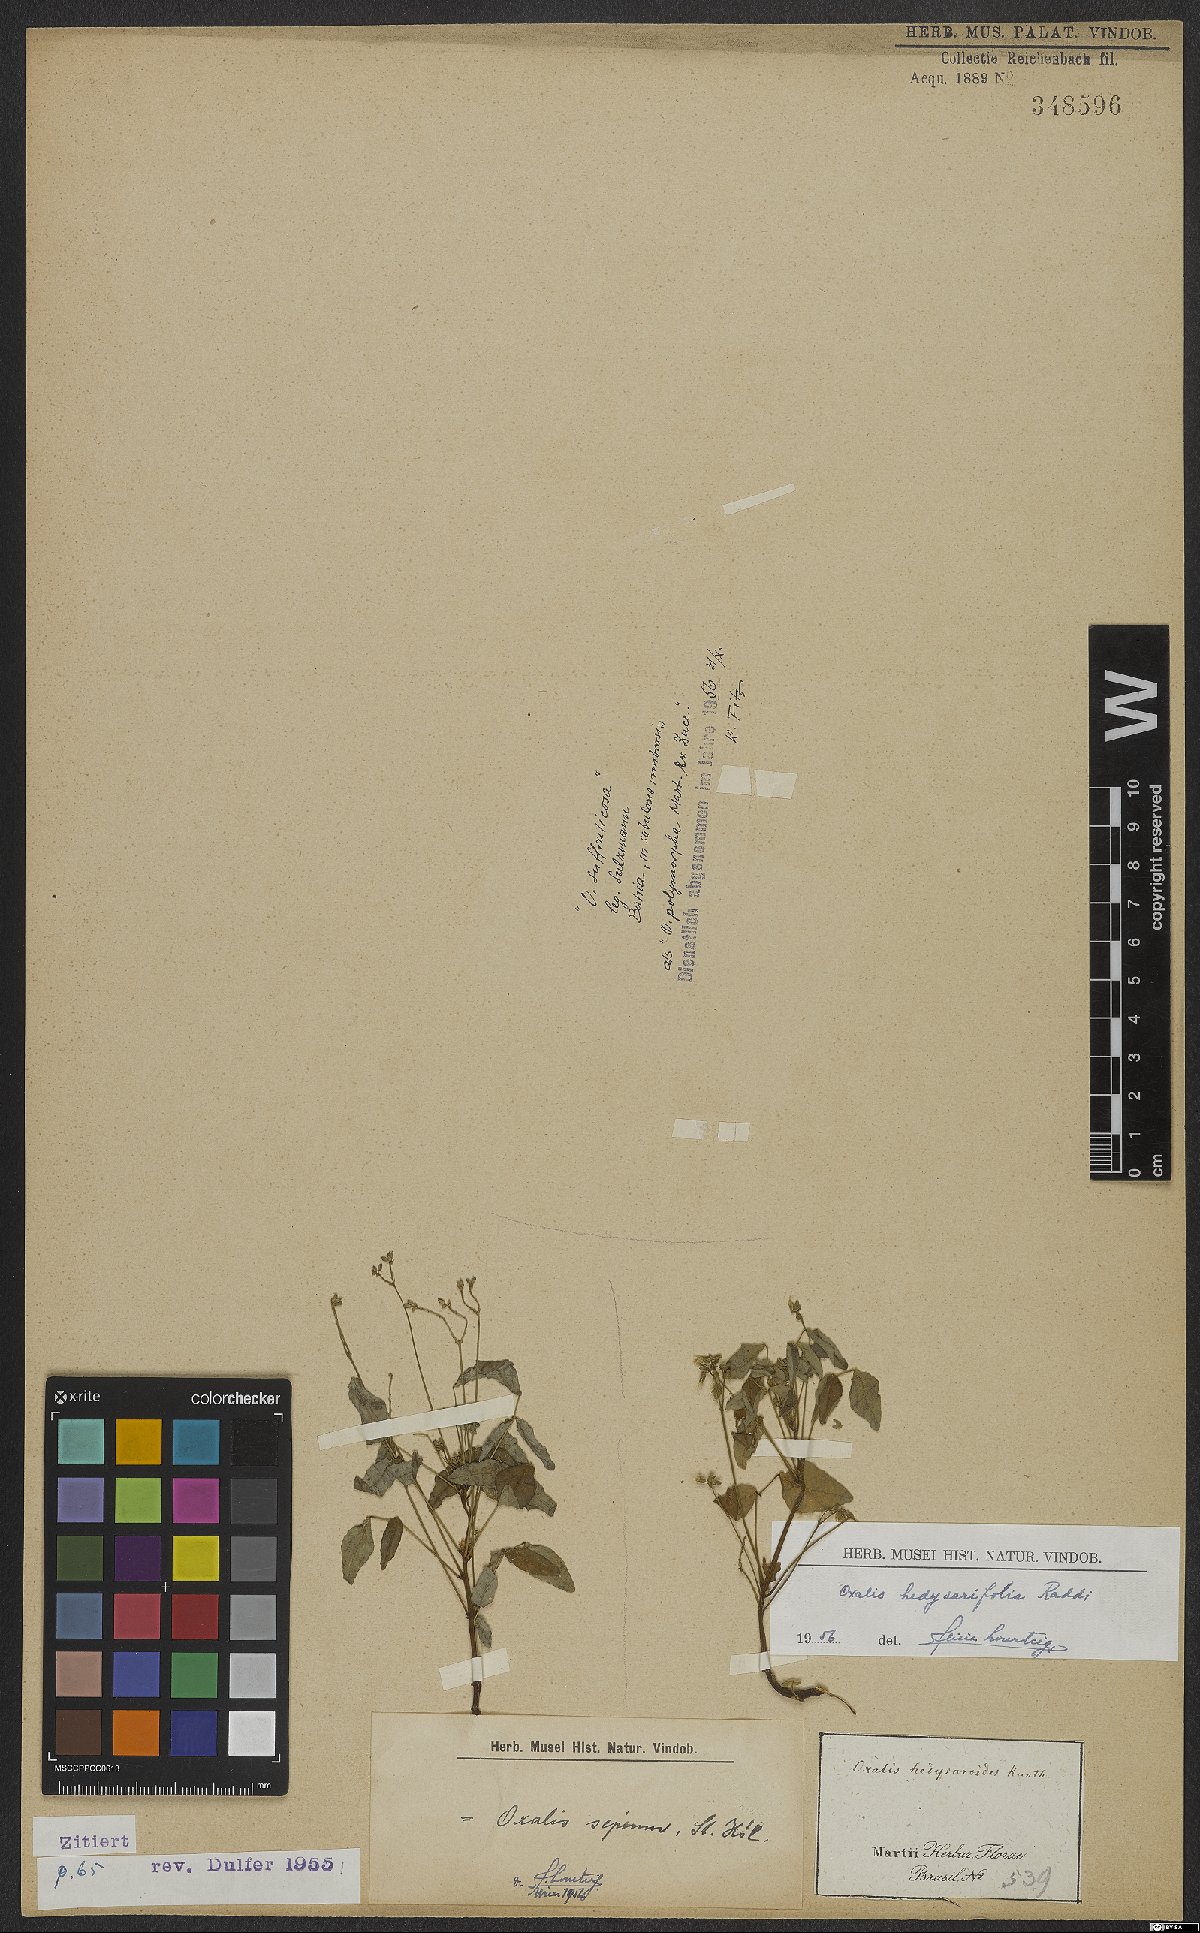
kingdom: Plantae
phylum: Tracheophyta
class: Magnoliopsida
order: Oxalidales
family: Oxalidaceae
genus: Oxalis
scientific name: Oxalis sepium
